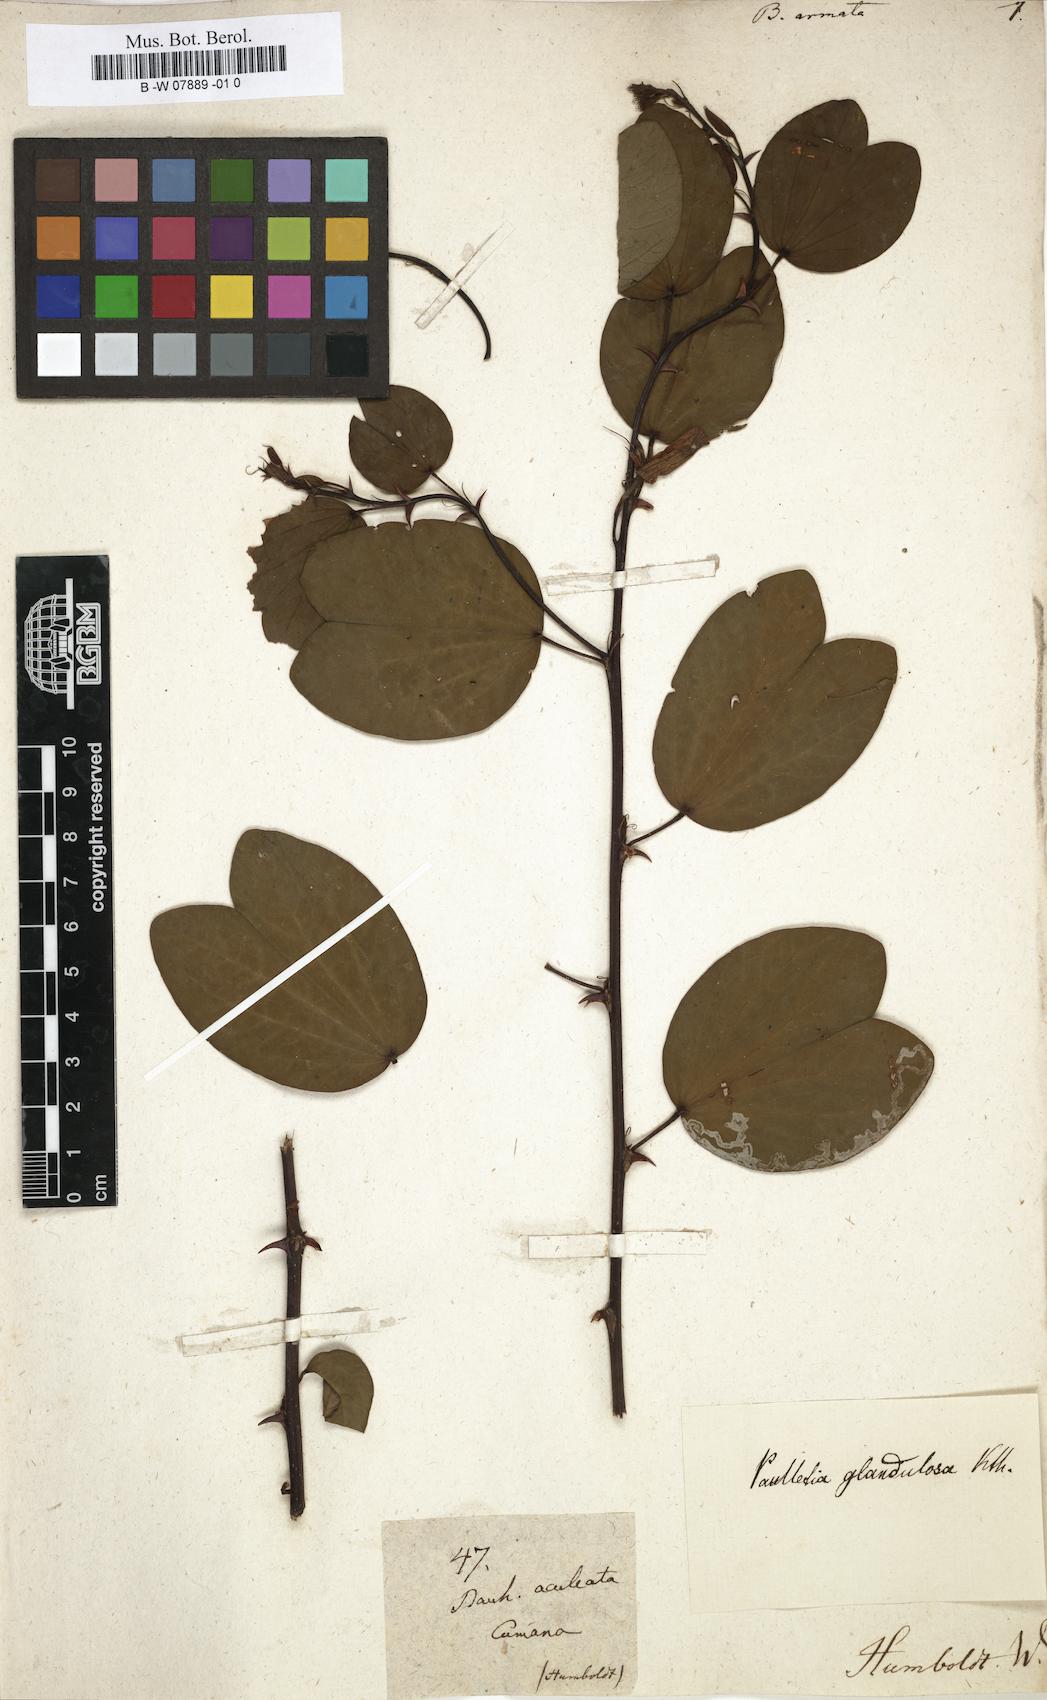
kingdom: Plantae
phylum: Tracheophyta
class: Magnoliopsida
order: Fabales
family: Fabaceae
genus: Bauhinia
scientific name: Bauhinia armata
